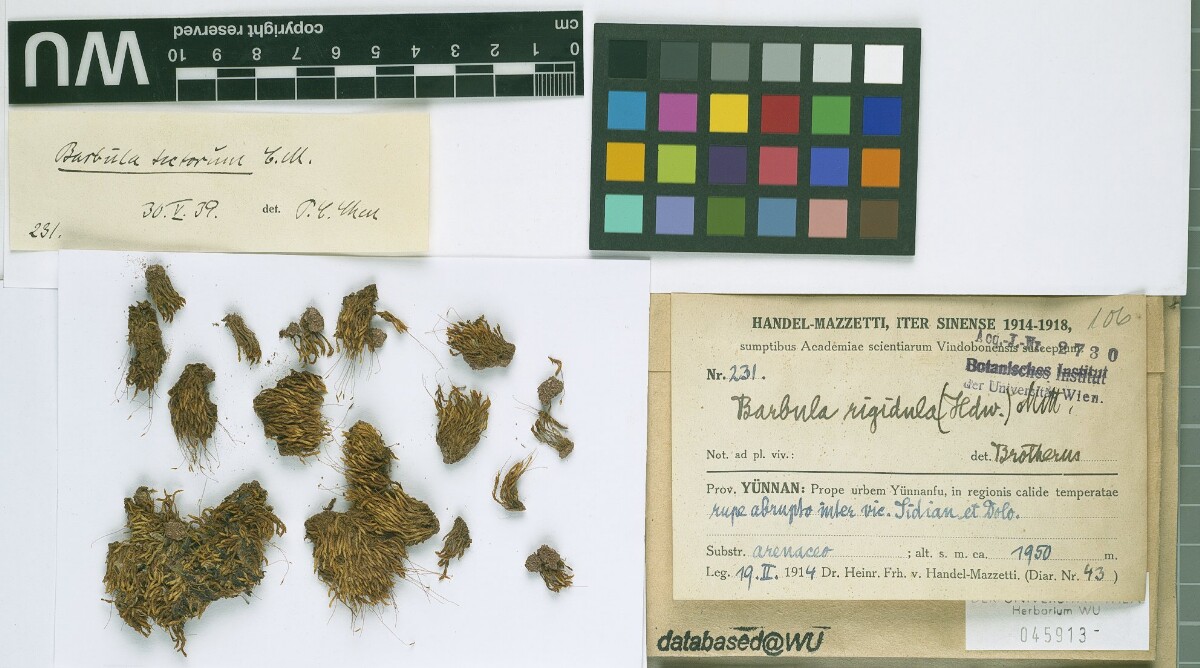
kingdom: Plantae
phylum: Bryophyta
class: Bryopsida
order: Pottiales
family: Pottiaceae
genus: Didymodon
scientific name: Didymodon rigidulus
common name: Rigid beard-moss
